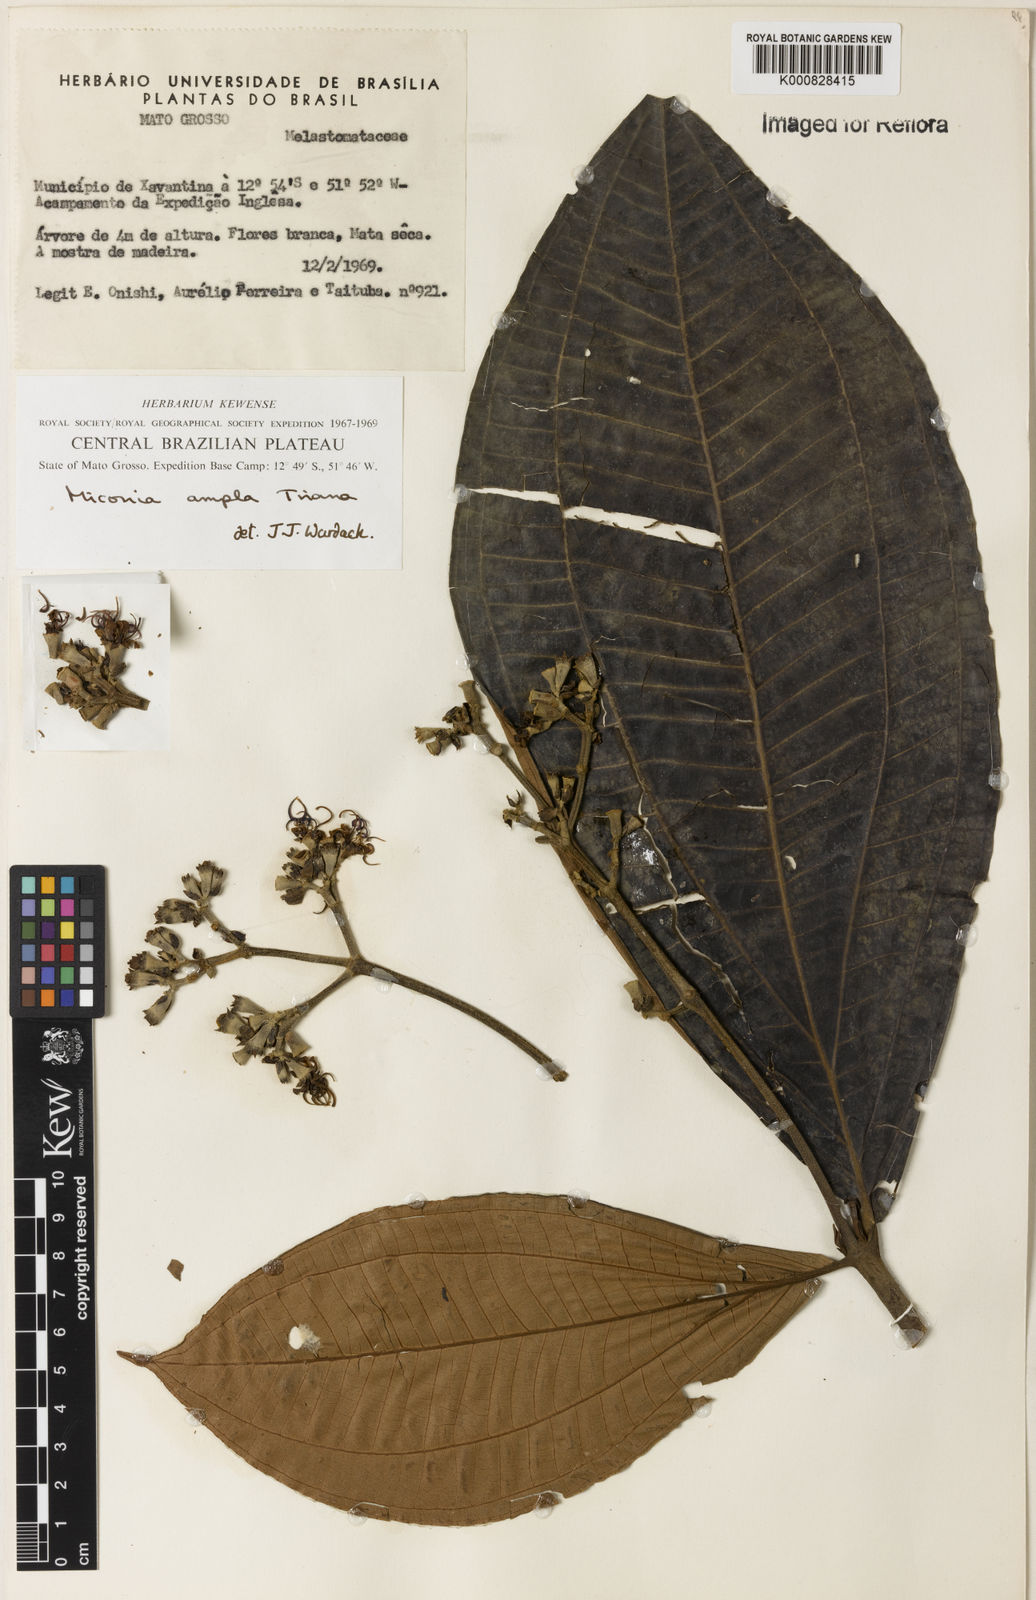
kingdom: Plantae
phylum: Tracheophyta
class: Magnoliopsida
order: Myrtales
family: Melastomataceae
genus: Miconia
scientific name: Miconia ampla
